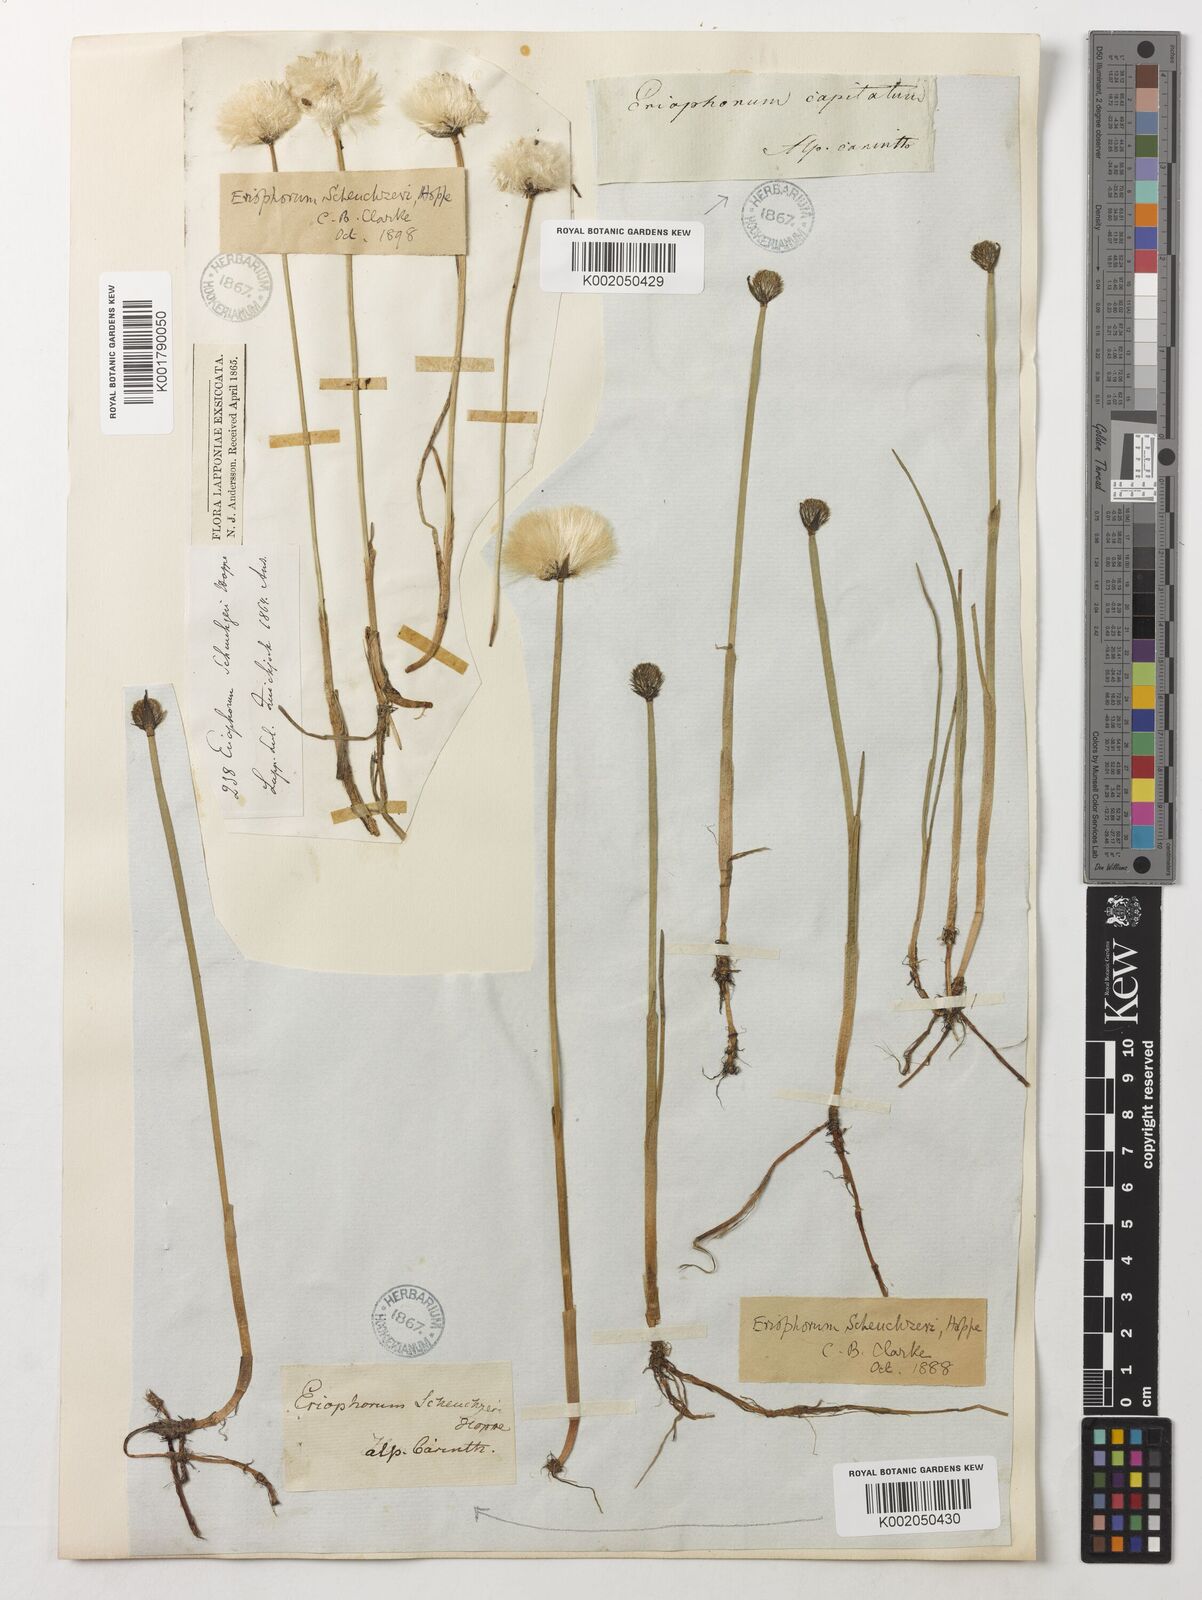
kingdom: Plantae
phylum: Tracheophyta
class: Liliopsida
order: Poales
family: Cyperaceae
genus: Eriophorum
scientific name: Eriophorum scheuchzeri
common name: Scheuchzer's cottongrass
